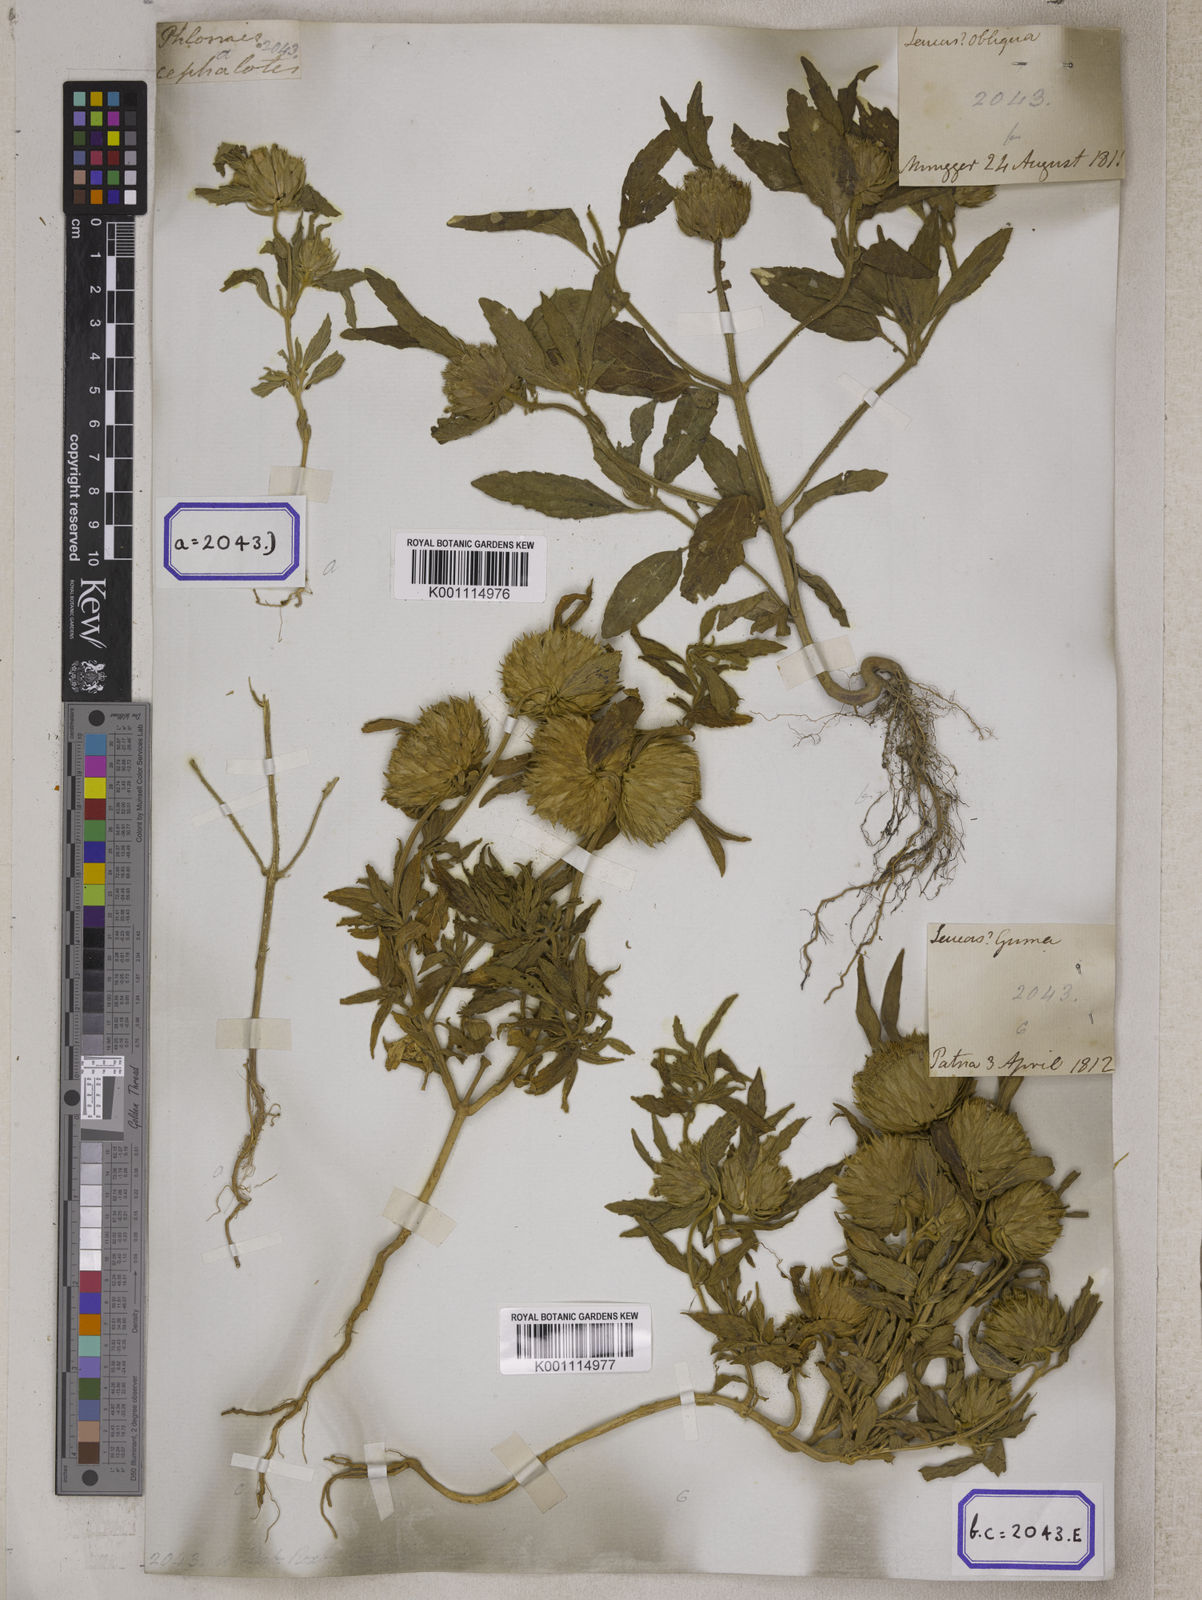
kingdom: Plantae
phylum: Tracheophyta
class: Magnoliopsida
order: Lamiales
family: Lamiaceae
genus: Leucas
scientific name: Leucas
